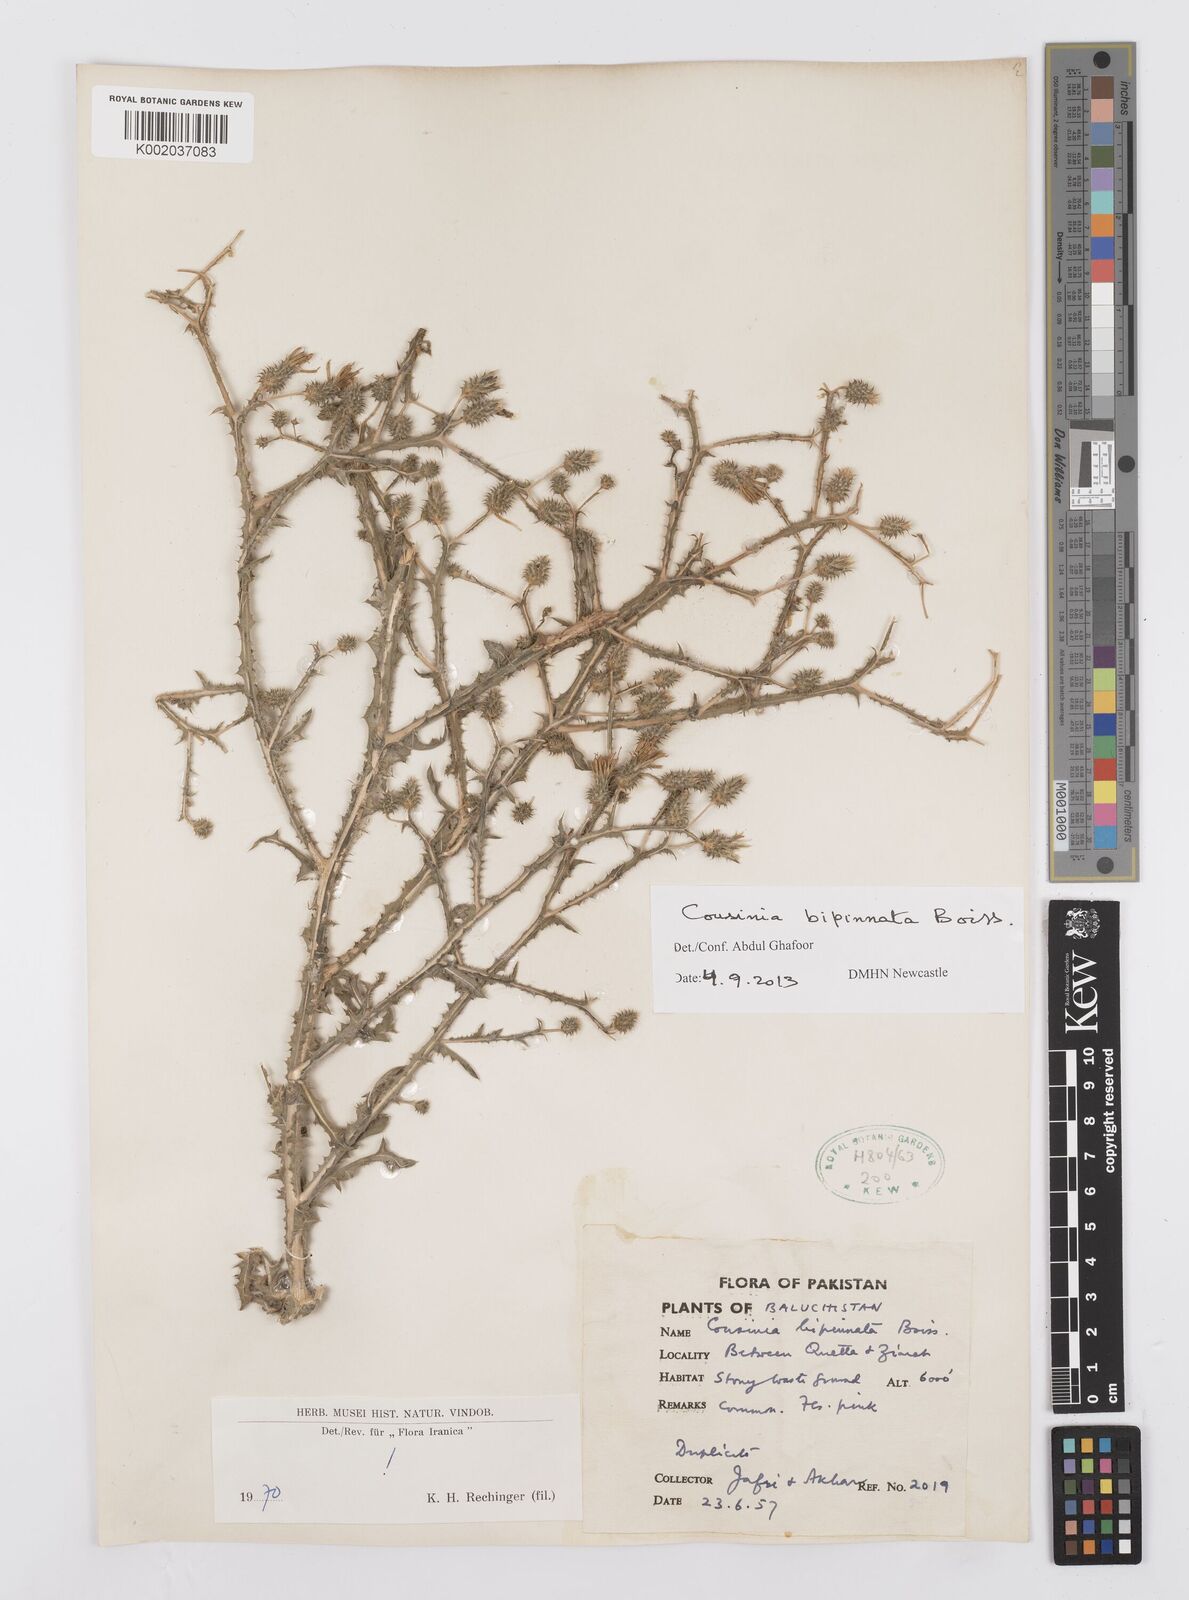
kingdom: Plantae
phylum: Tracheophyta
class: Magnoliopsida
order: Asterales
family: Asteraceae
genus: Cousinia
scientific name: Cousinia bipinnata
